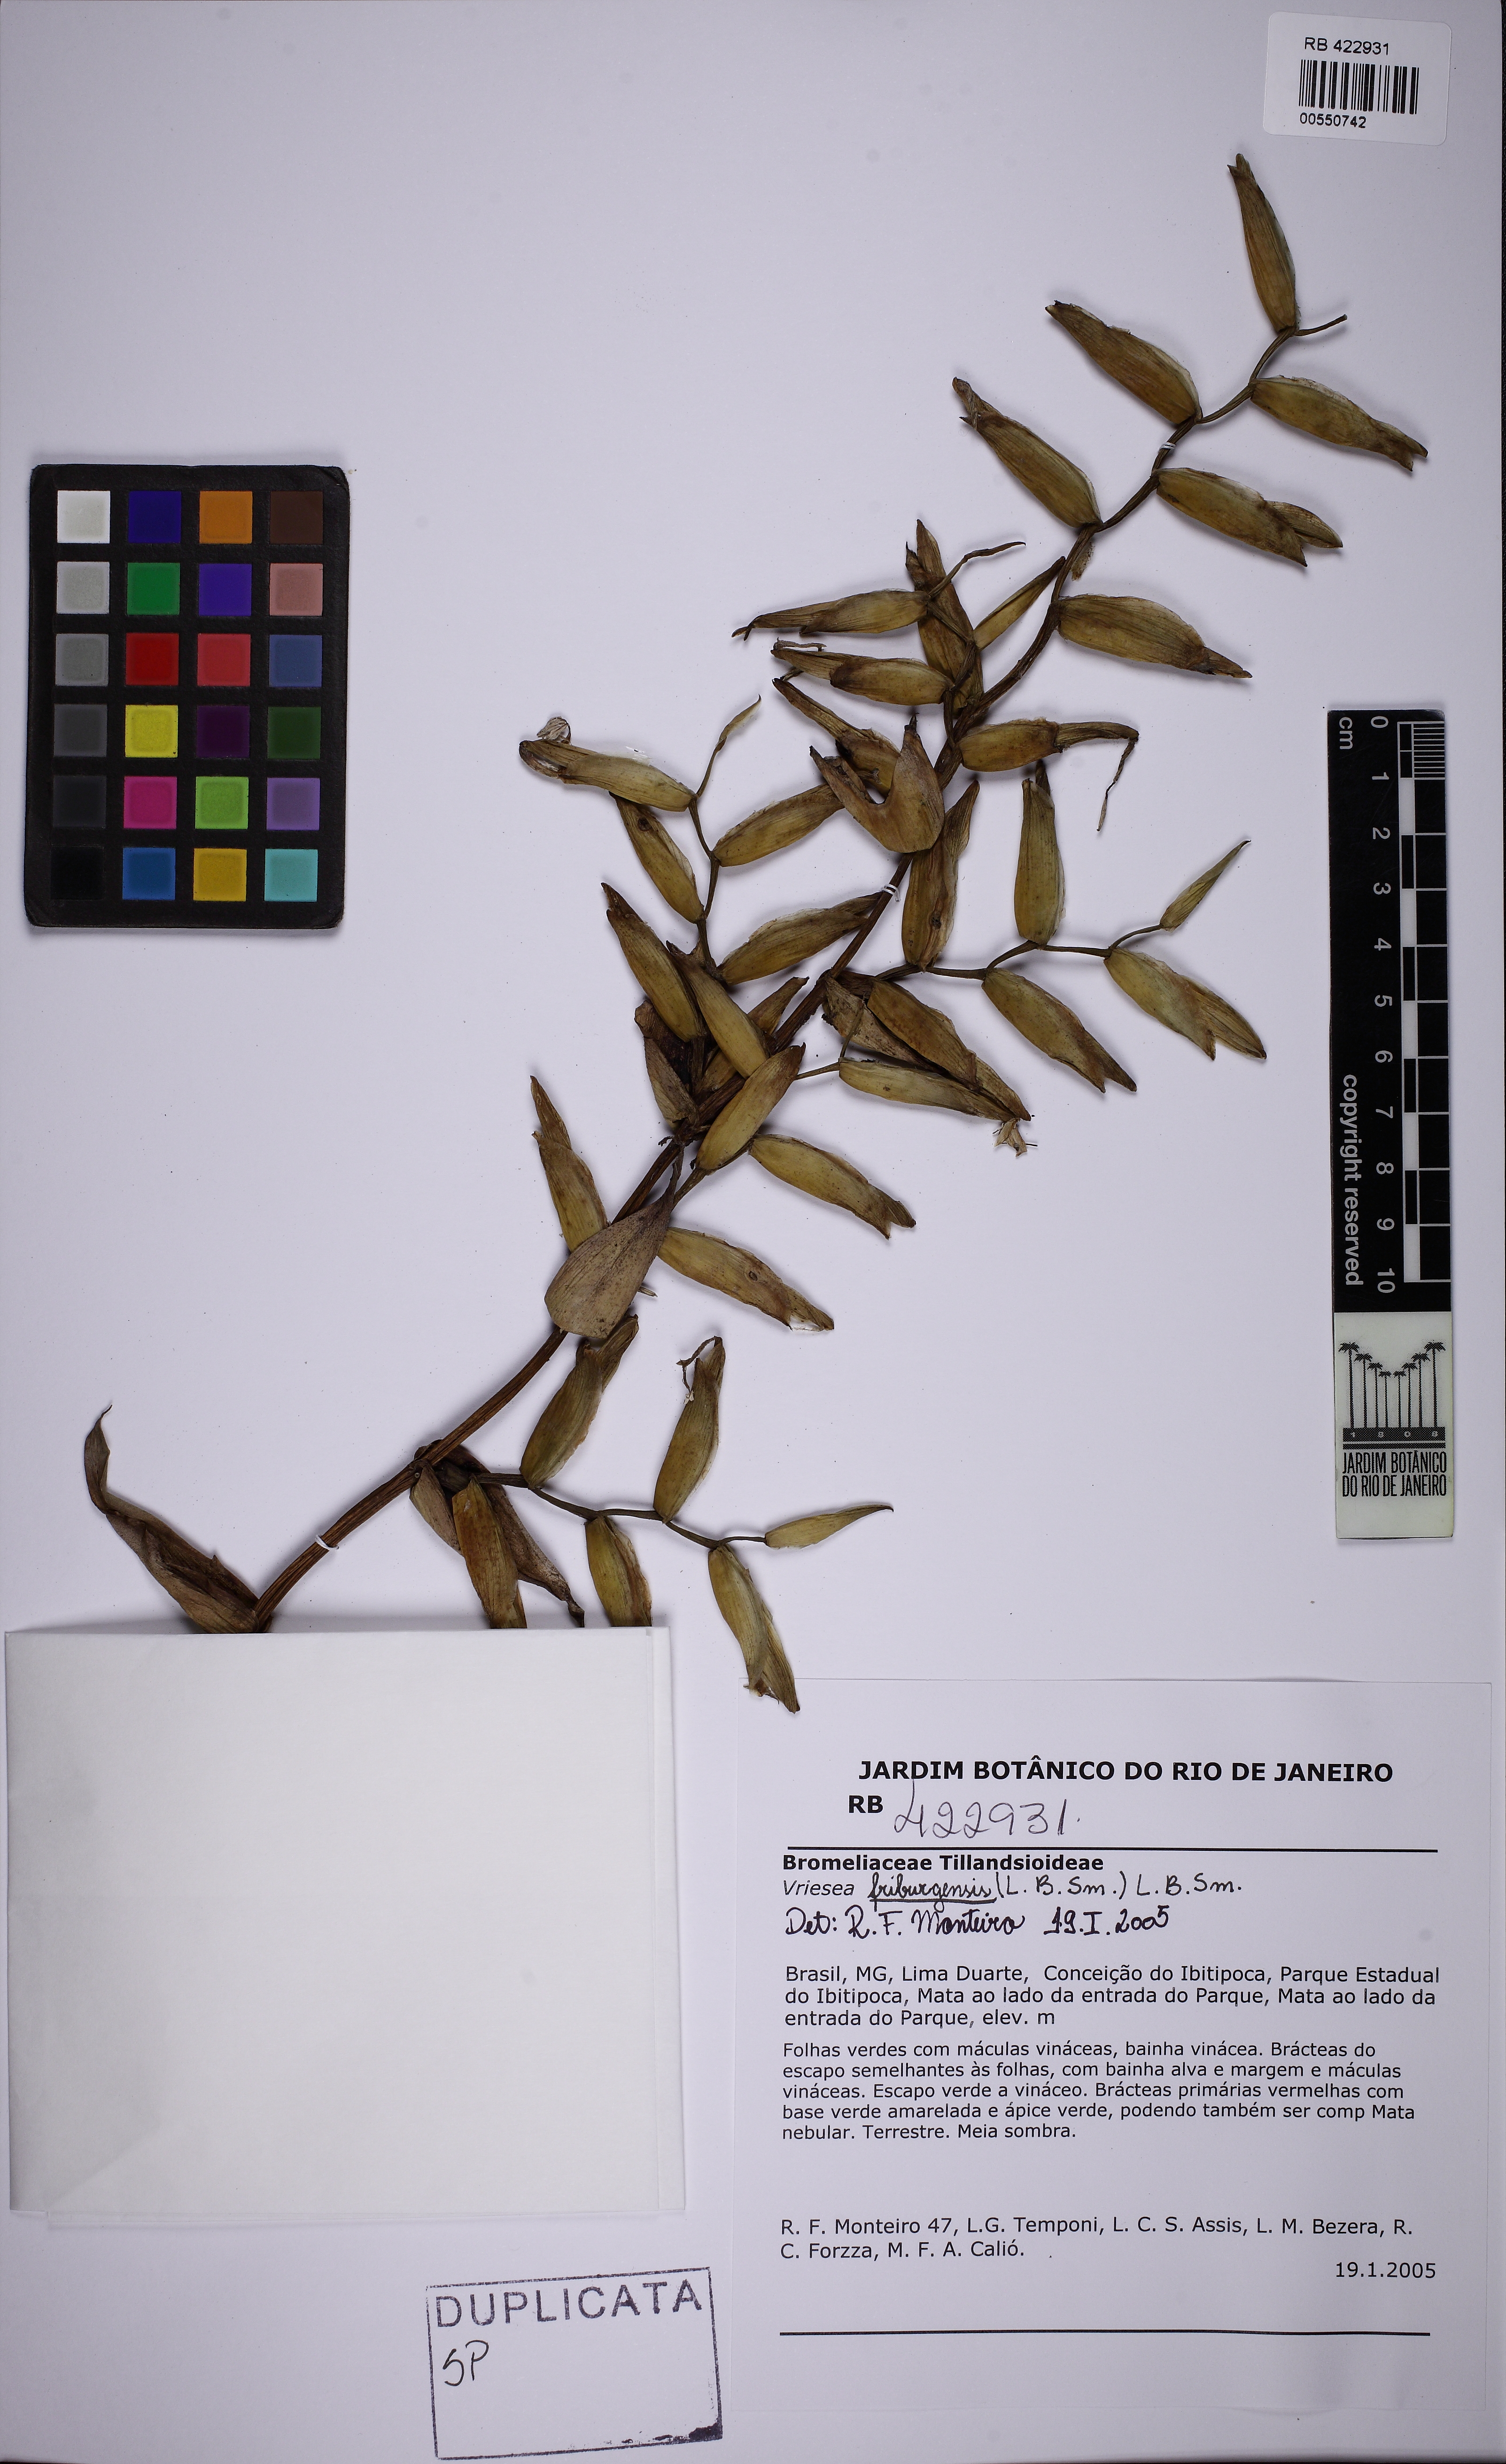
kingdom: Plantae
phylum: Tracheophyta
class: Liliopsida
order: Poales
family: Bromeliaceae
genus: Vriesea
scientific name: Vriesea friburgensis
